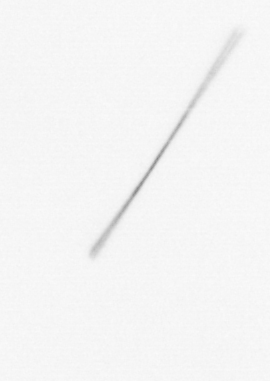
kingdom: Chromista
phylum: Ochrophyta
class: Bacillariophyceae
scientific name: Bacillariophyceae
